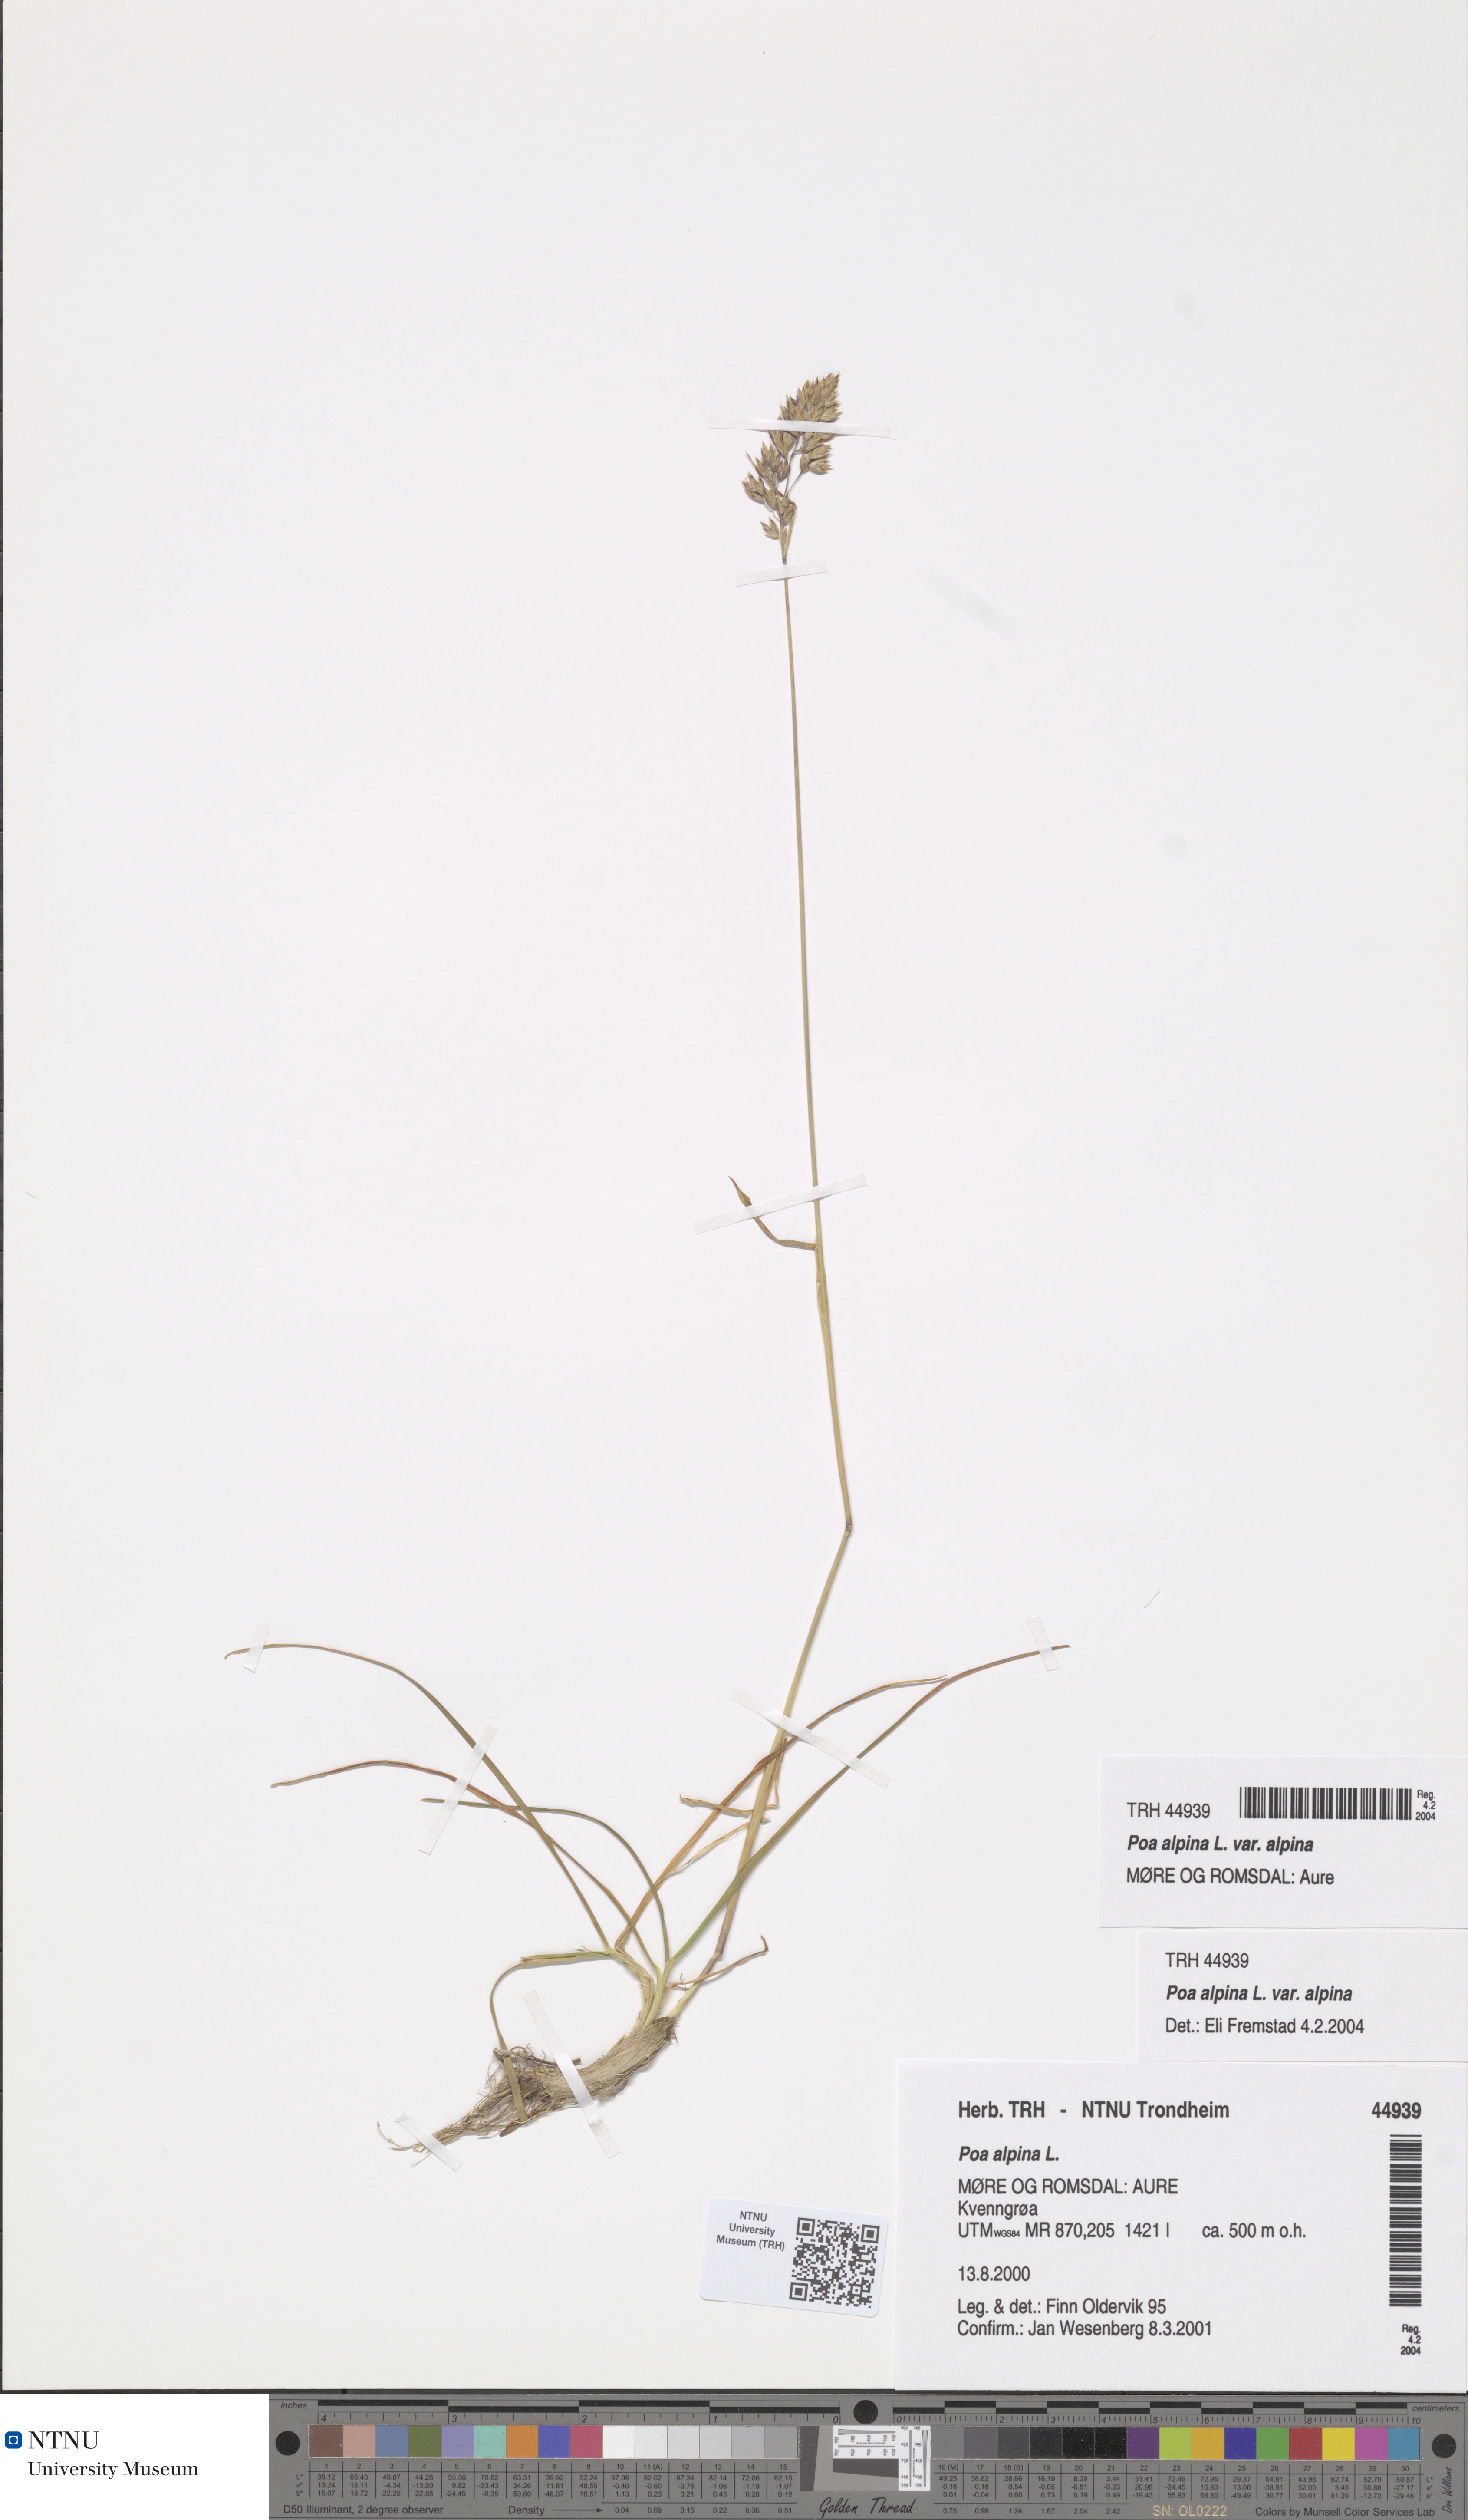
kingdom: Plantae
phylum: Tracheophyta
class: Liliopsida
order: Poales
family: Poaceae
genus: Poa
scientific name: Poa alpina
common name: Alpine bluegrass
